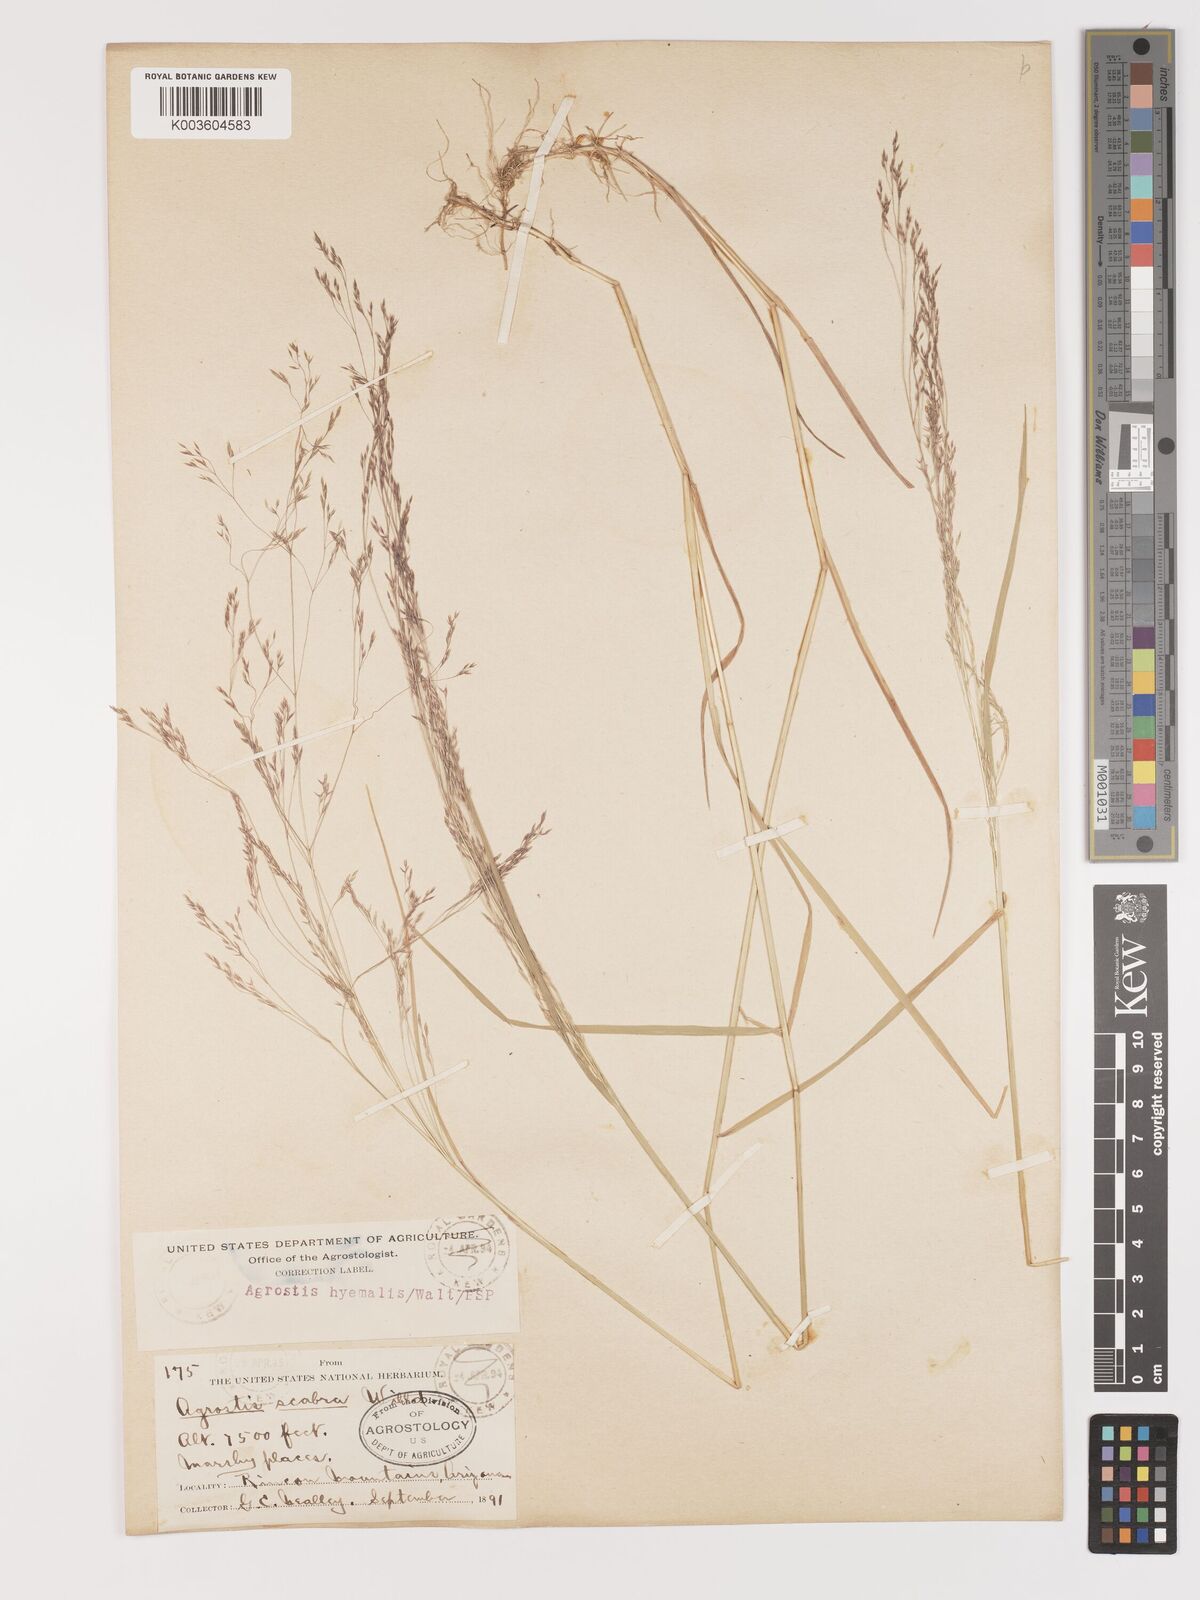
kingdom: Plantae
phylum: Tracheophyta
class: Liliopsida
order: Poales
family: Poaceae
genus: Agrostis
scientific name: Agrostis hyemalis
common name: Small bent
